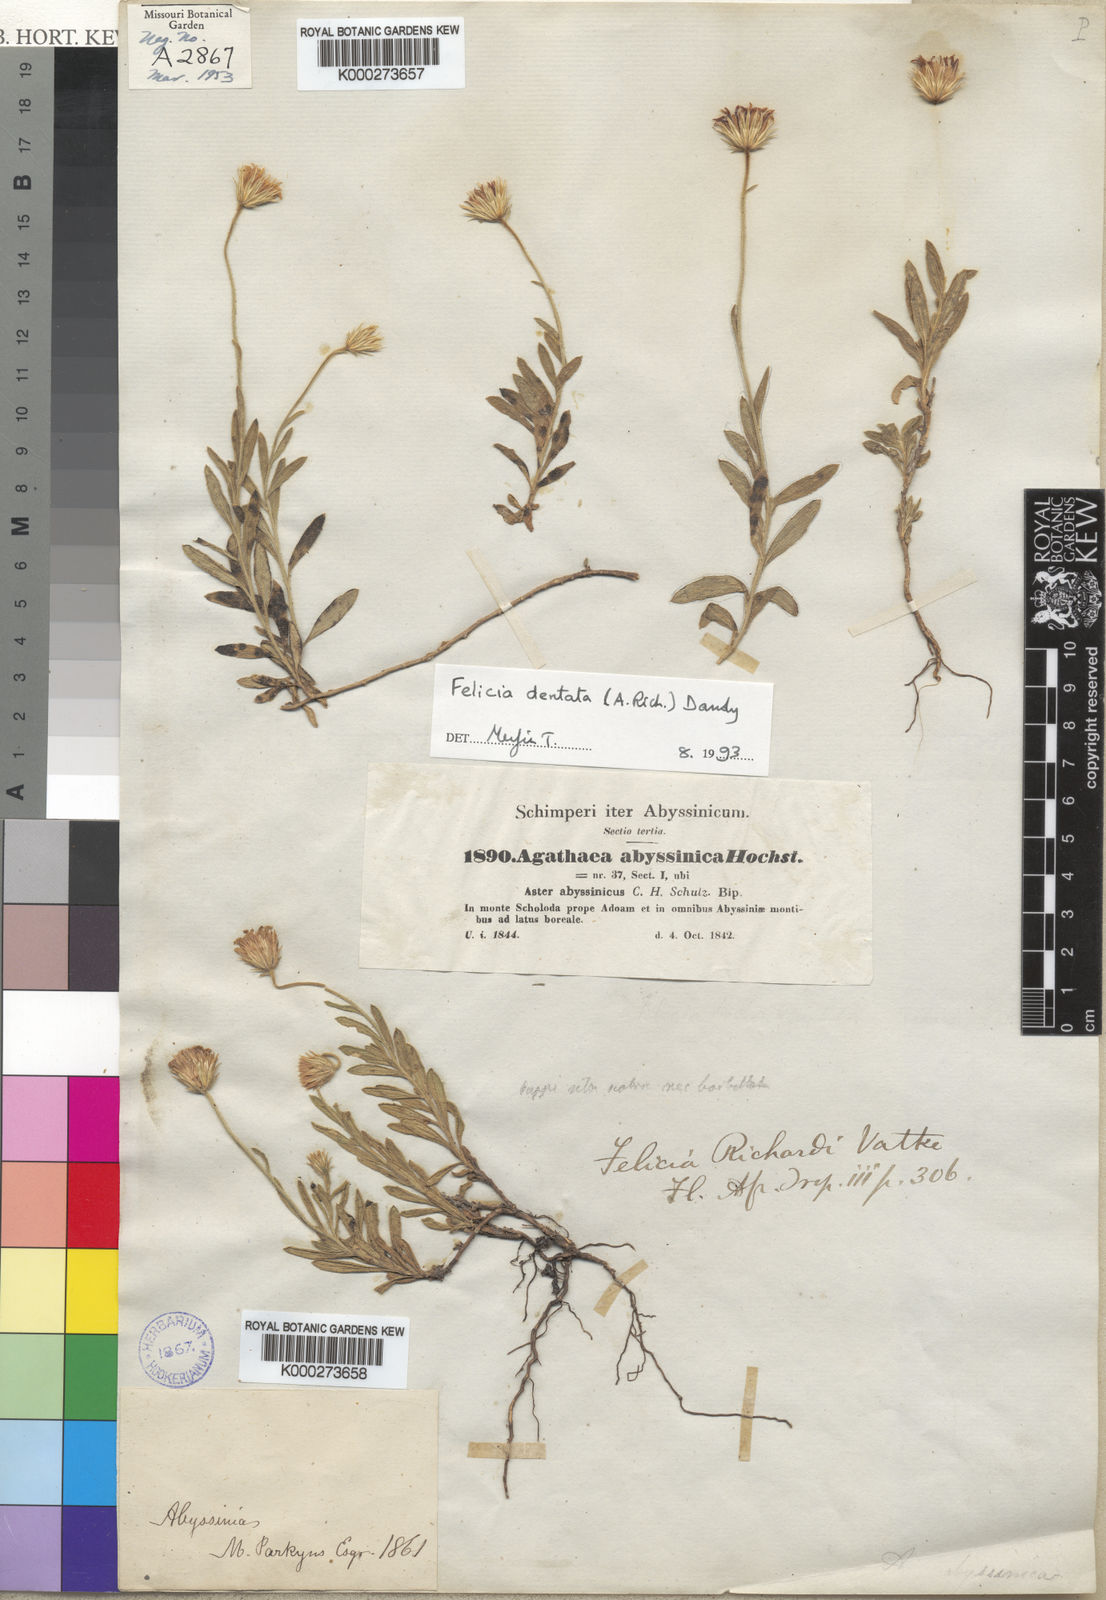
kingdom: Plantae
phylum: Tracheophyta
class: Magnoliopsida
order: Asterales
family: Asteraceae
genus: Felicia
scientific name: Felicia dentata
